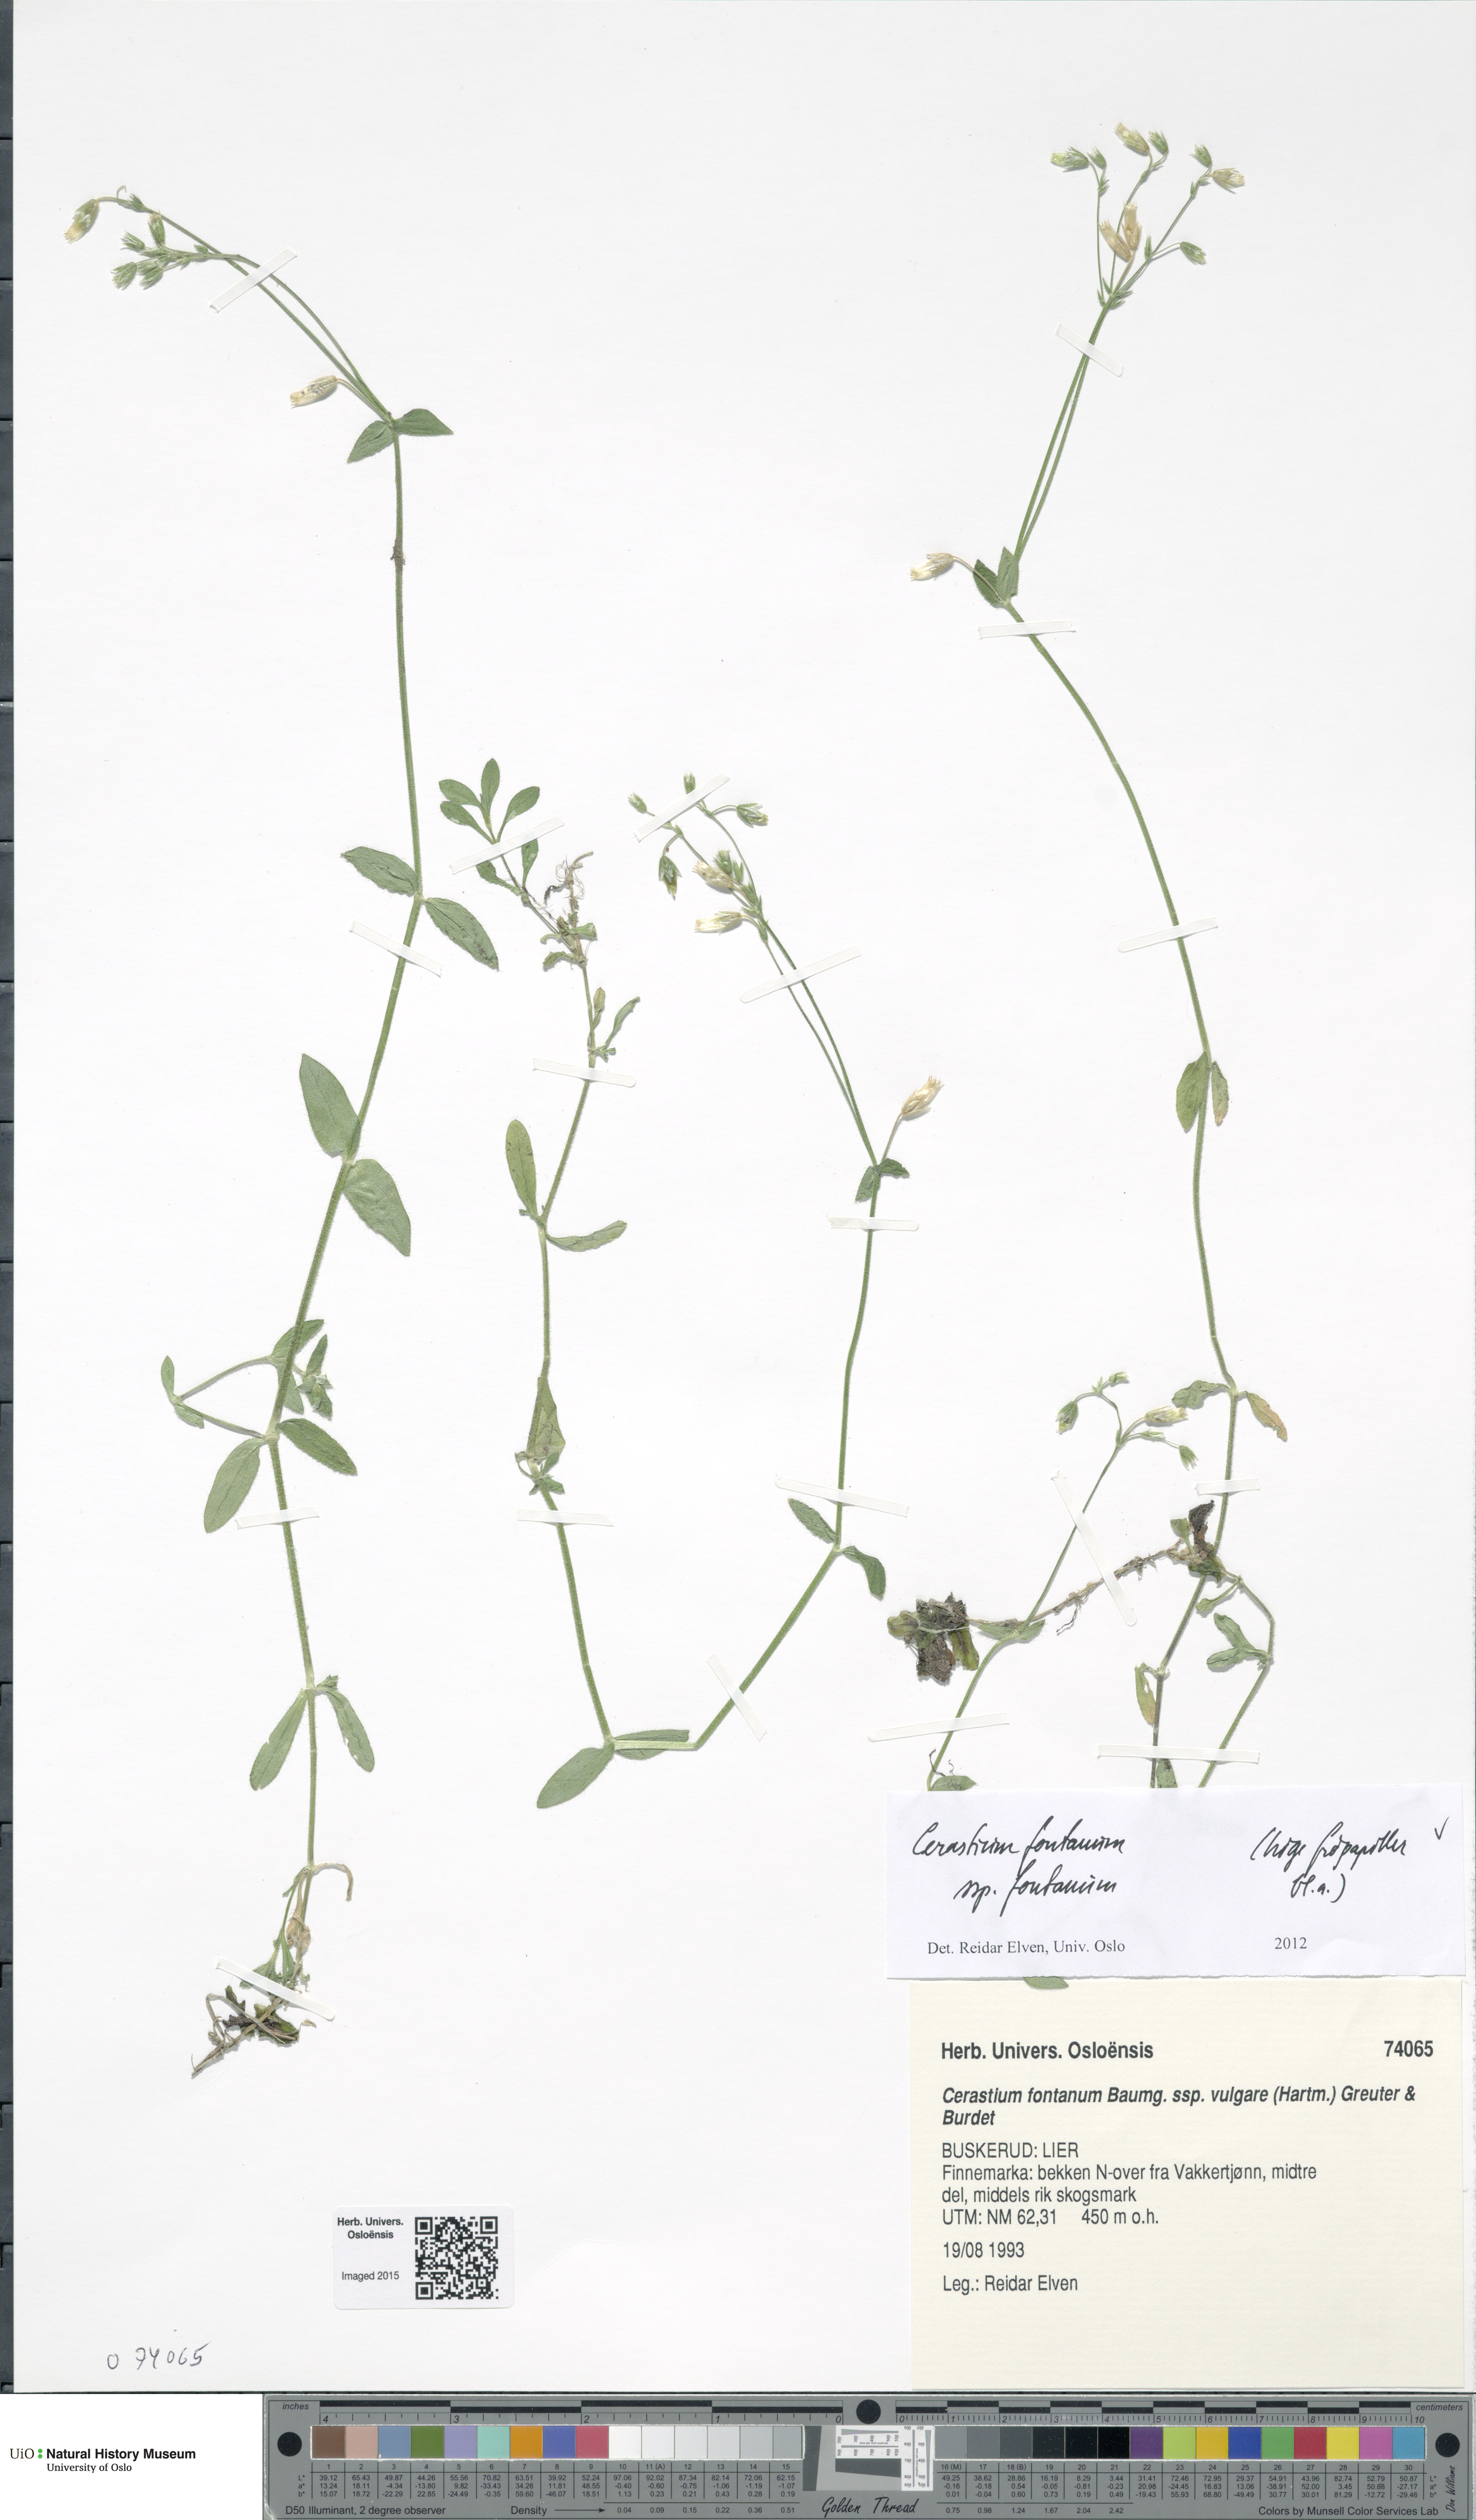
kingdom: Plantae
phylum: Tracheophyta
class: Magnoliopsida
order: Caryophyllales
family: Caryophyllaceae
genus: Cerastium
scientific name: Cerastium fontanum
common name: Common mouse-ear
